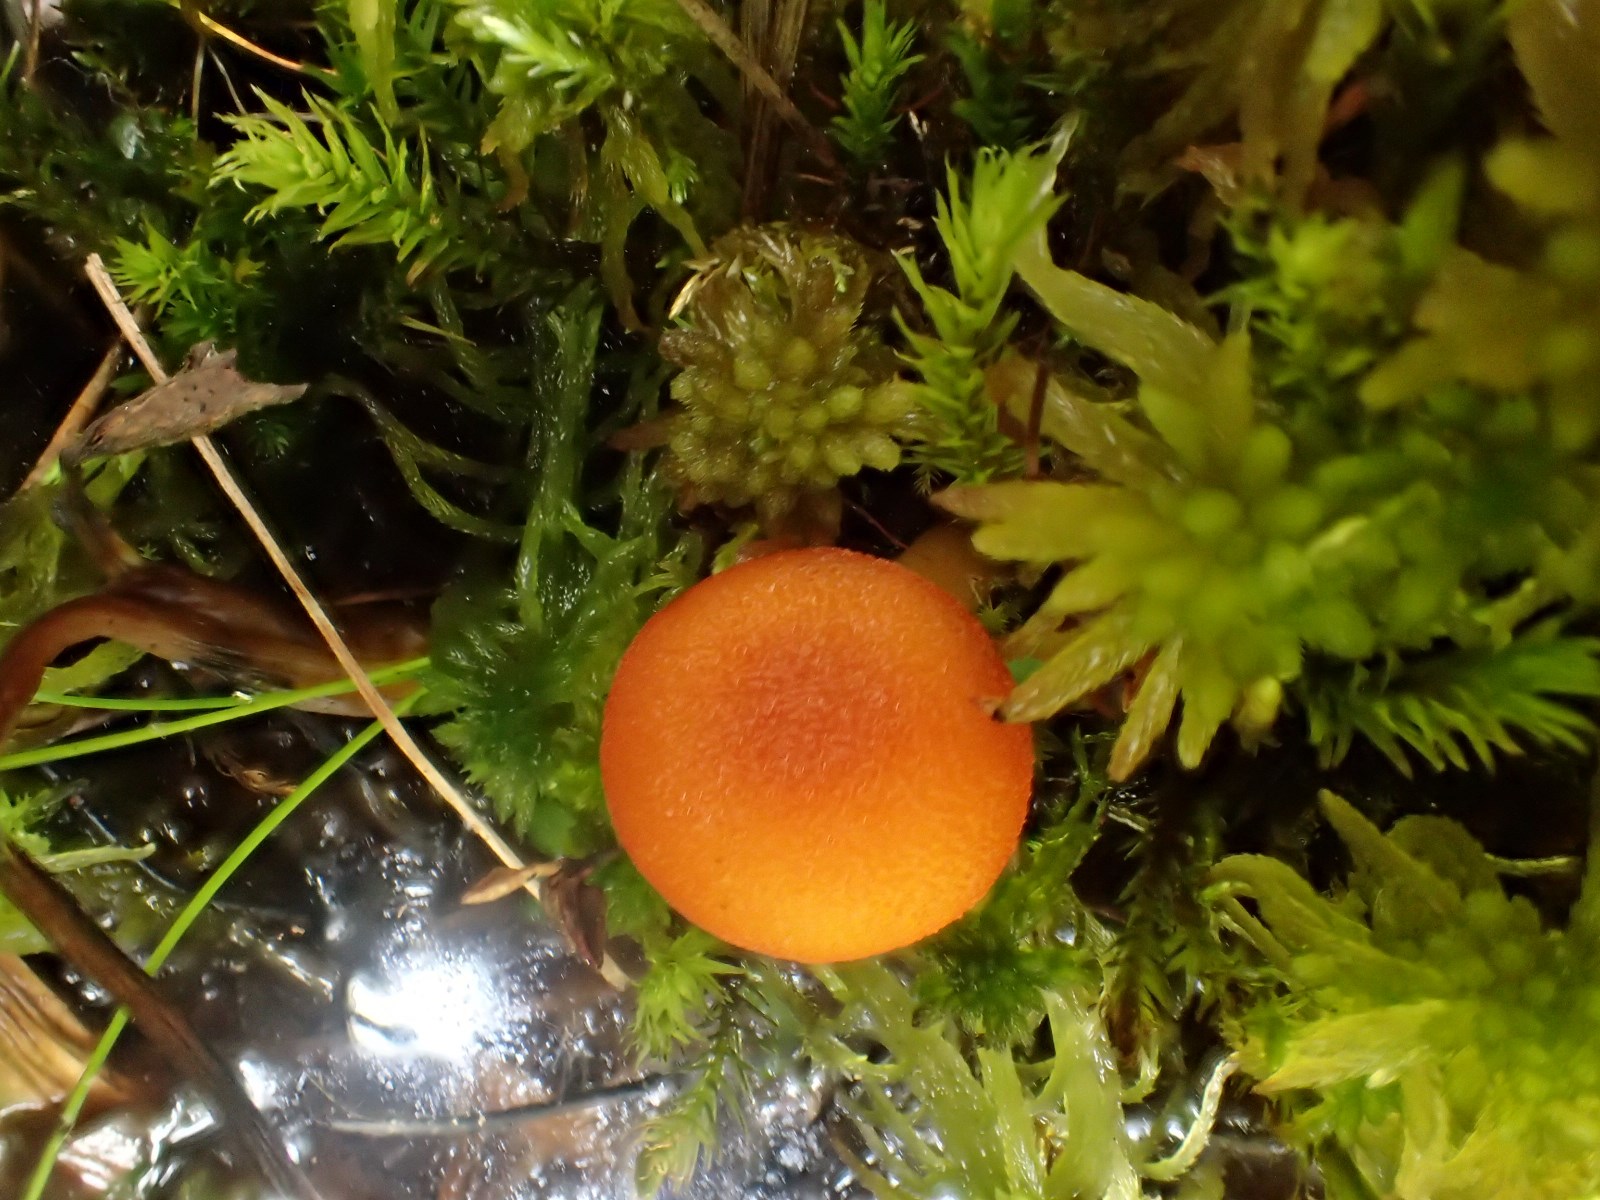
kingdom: Fungi
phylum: Basidiomycota
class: Agaricomycetes
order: Agaricales
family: Hygrophoraceae
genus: Hygrocybe
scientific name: Hygrocybe cantharellus
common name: kantarel-vokshat
